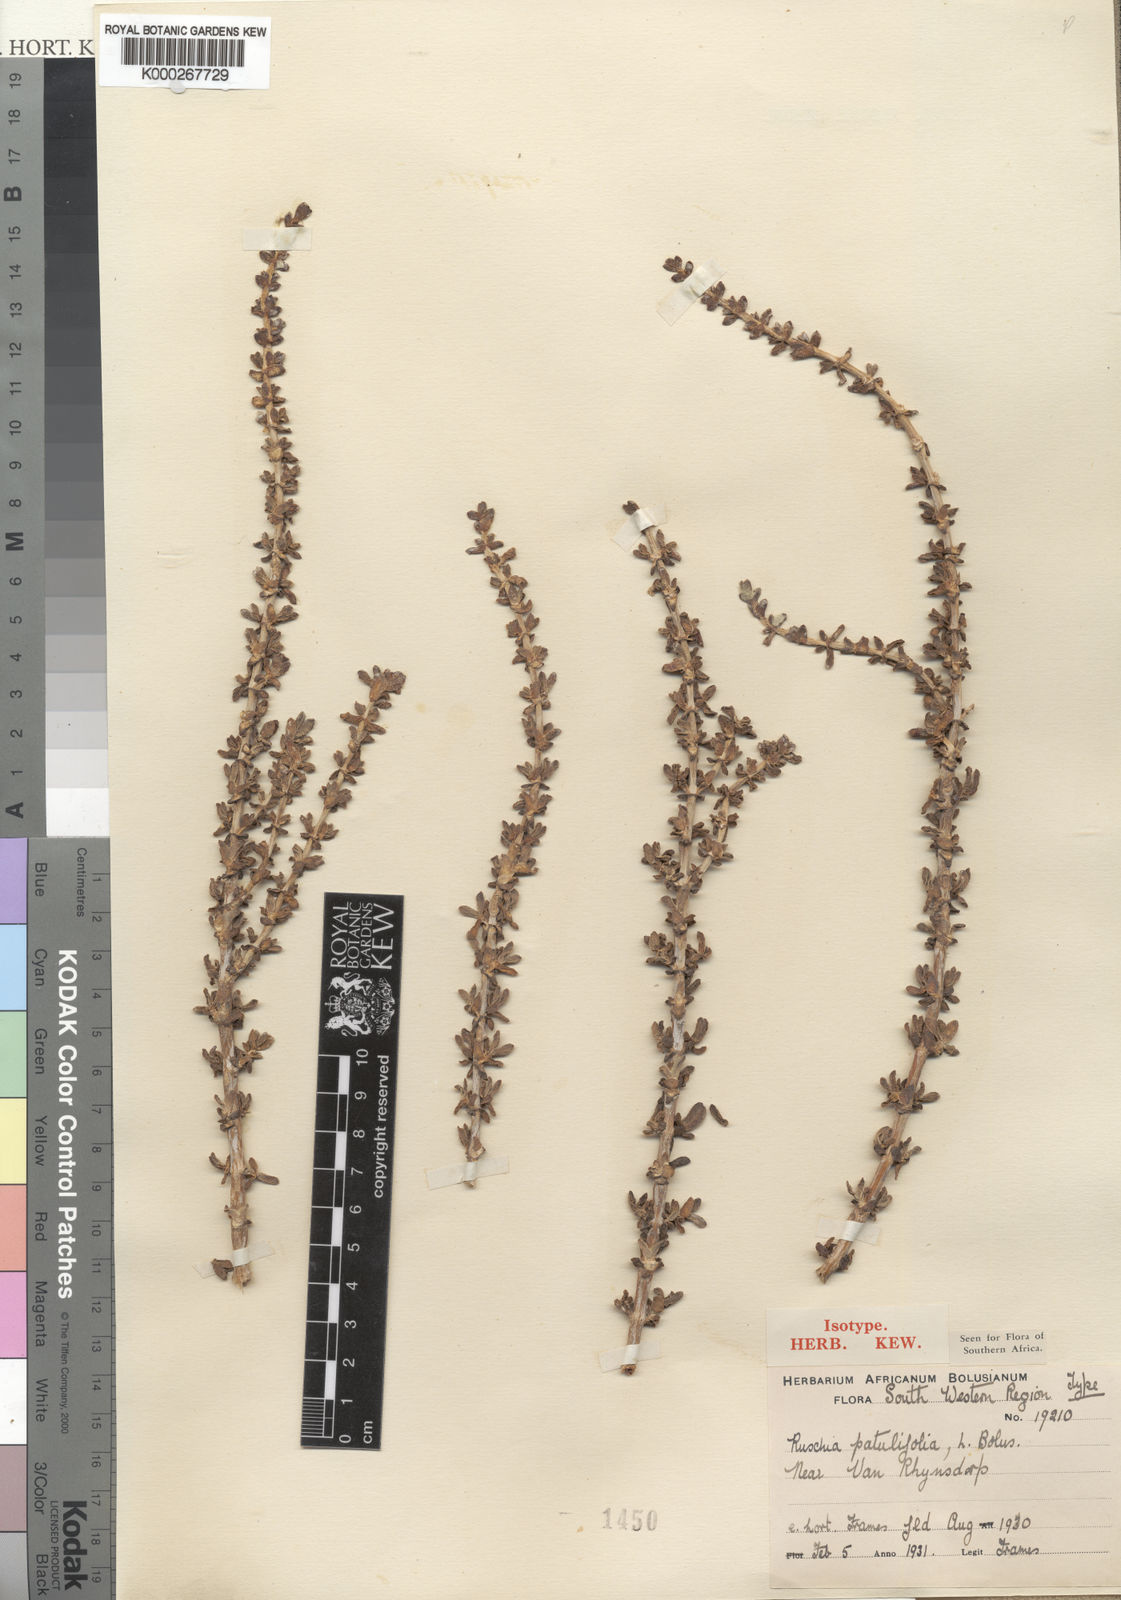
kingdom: Plantae
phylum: Tracheophyta
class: Magnoliopsida
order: Caryophyllales
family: Aizoaceae
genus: Ruschia
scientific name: Ruschia patulifolia
